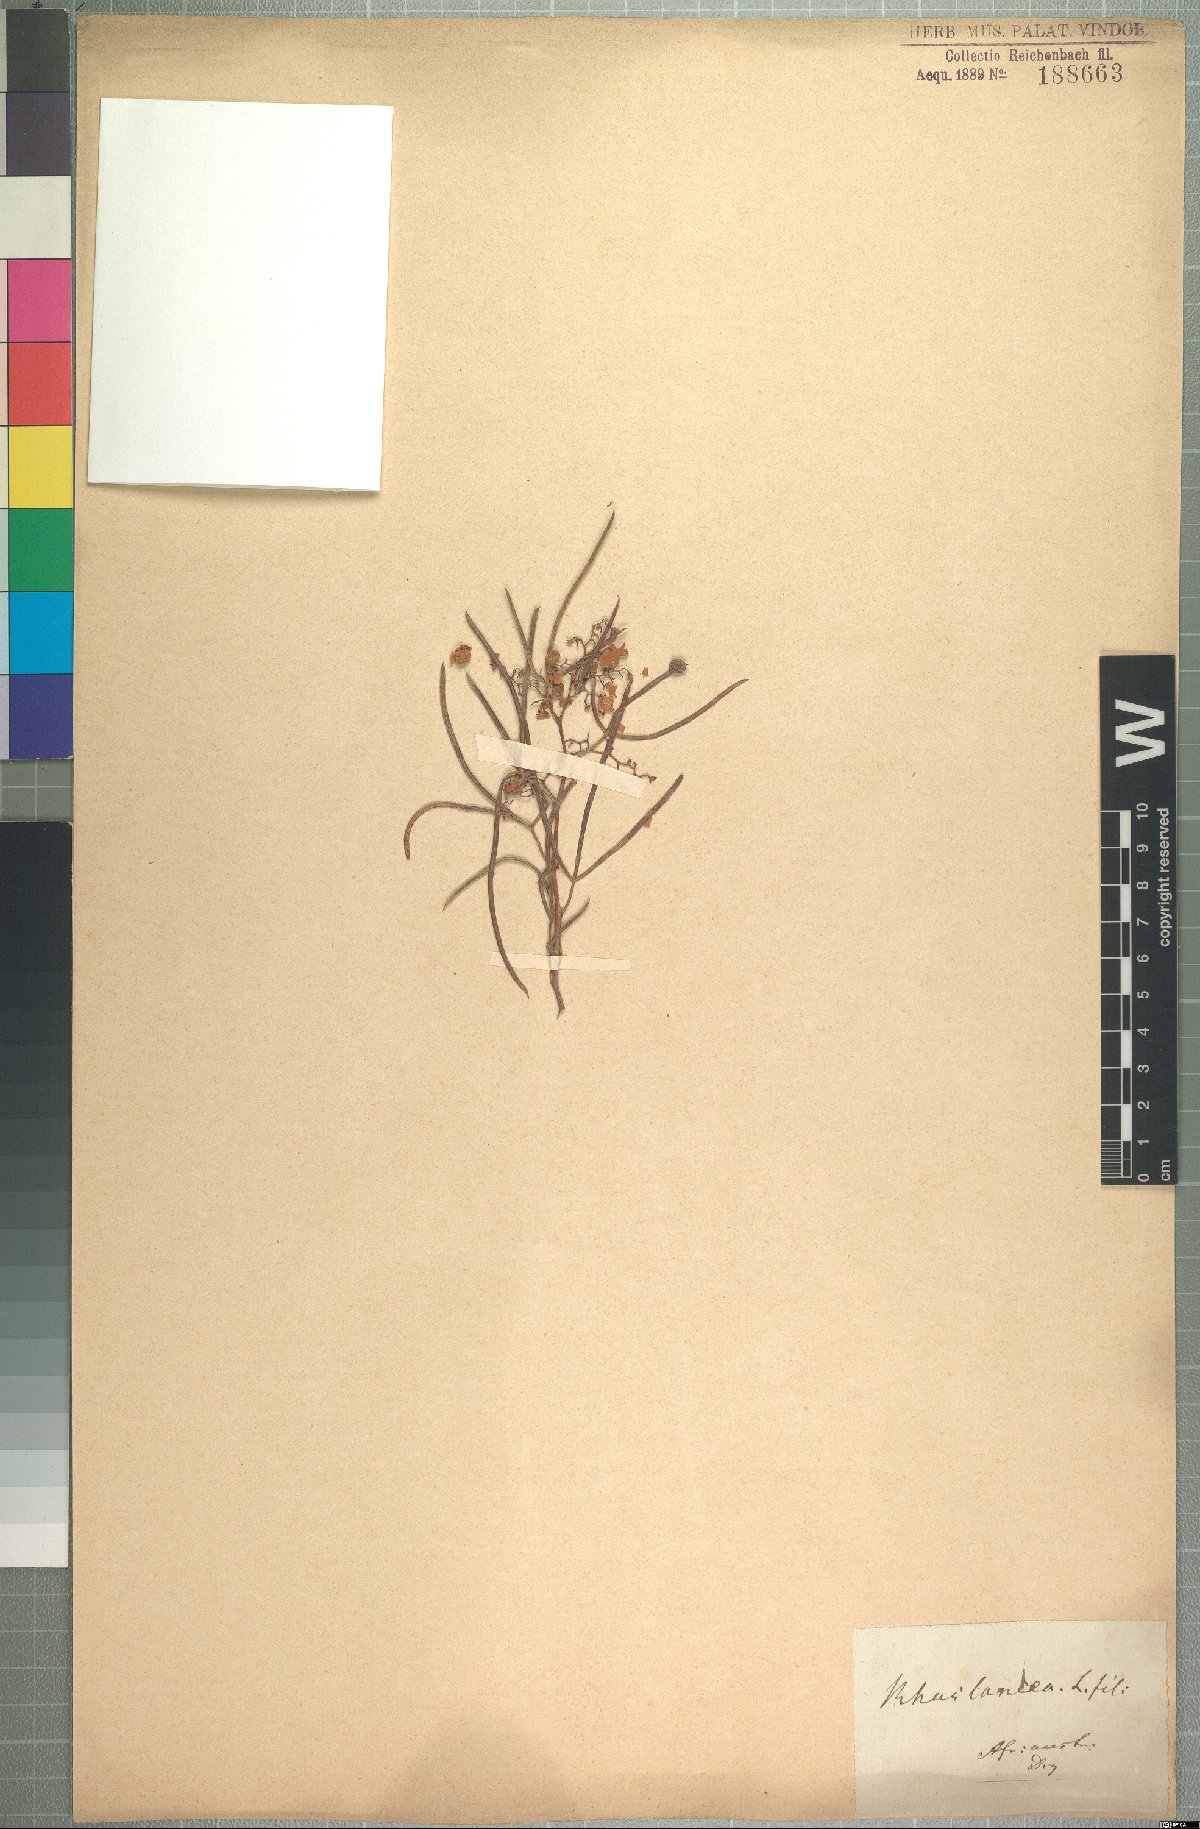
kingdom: Plantae
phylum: Tracheophyta
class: Magnoliopsida
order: Sapindales
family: Anacardiaceae
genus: Searsia
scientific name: Searsia dregeana
